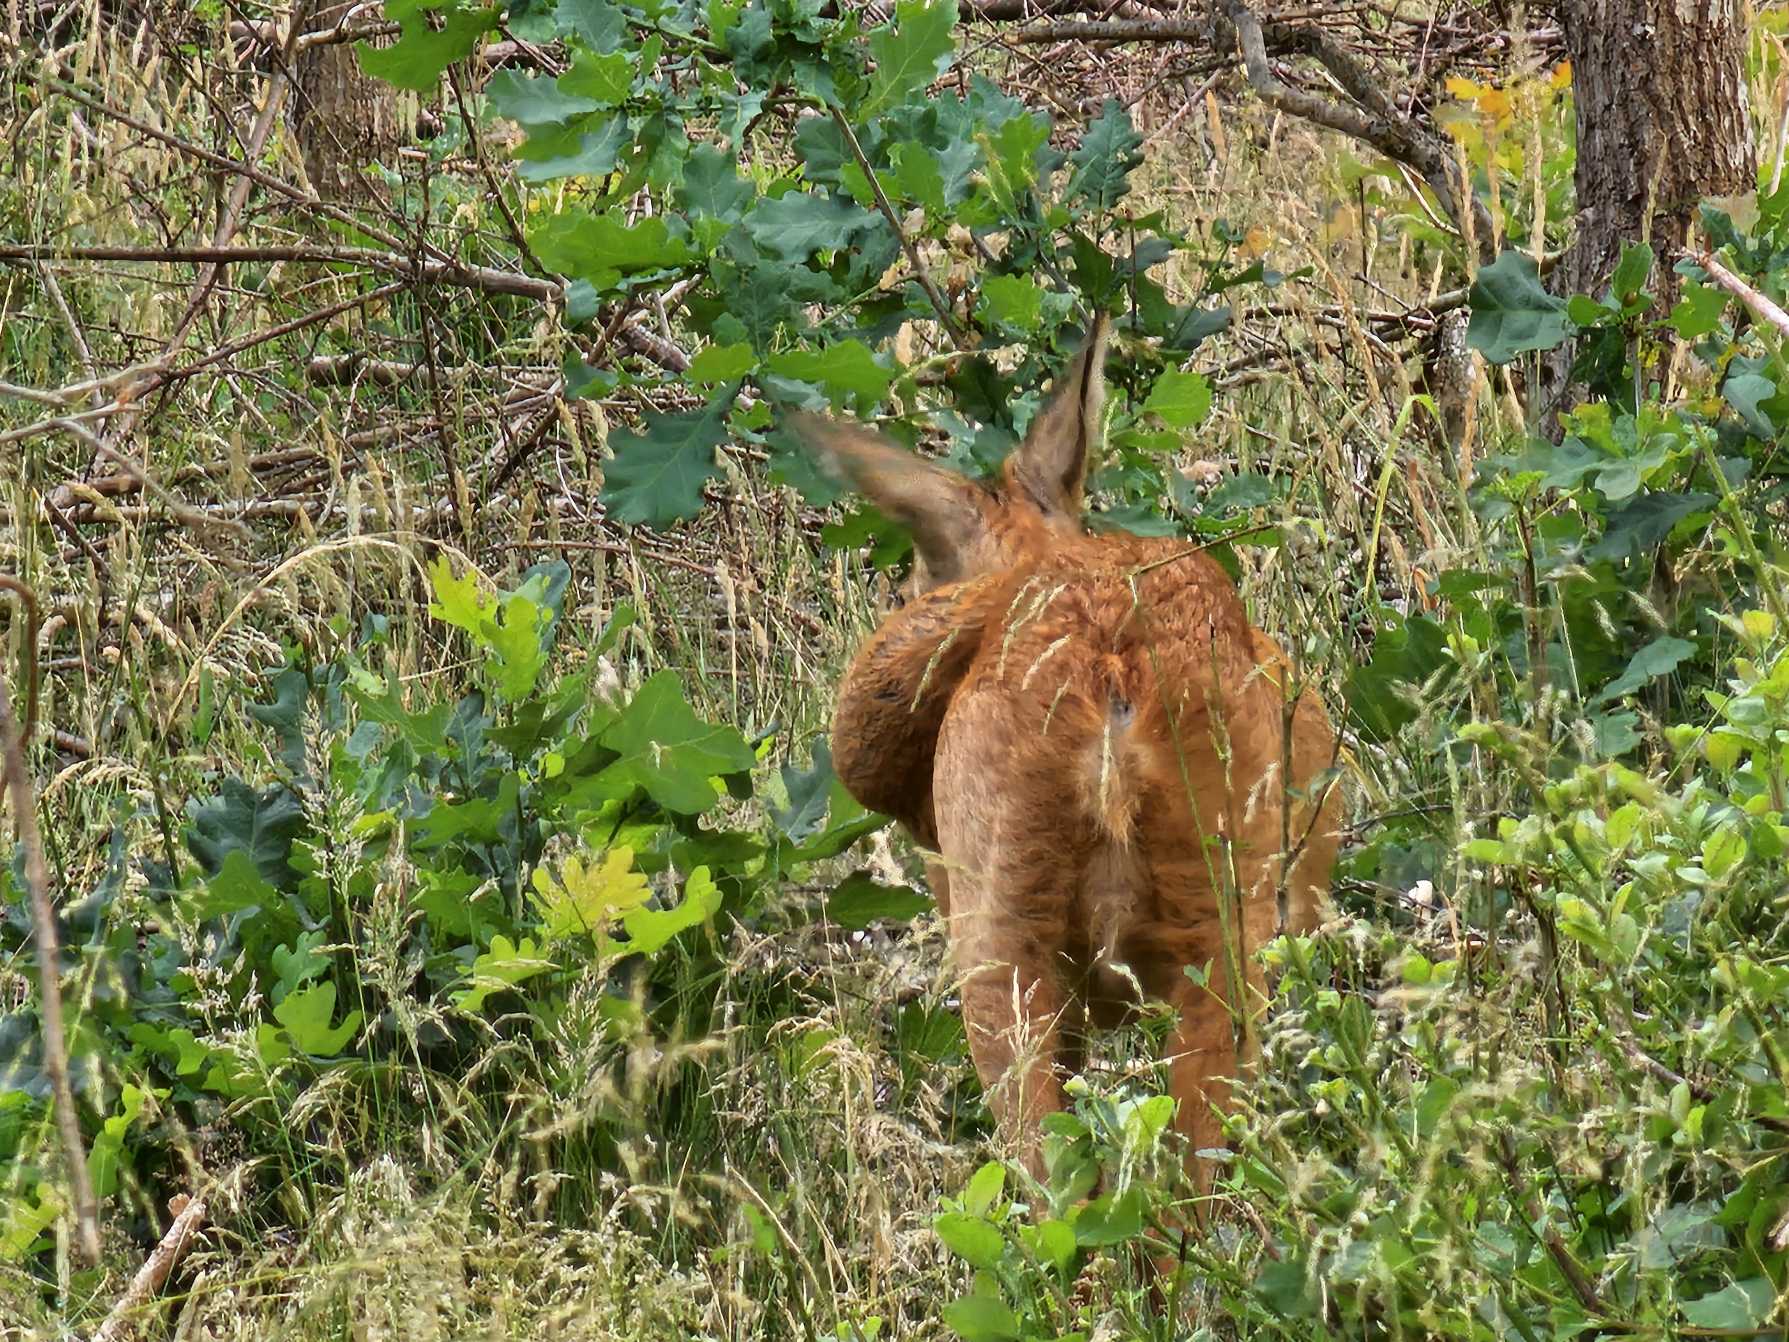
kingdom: Animalia
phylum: Chordata
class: Mammalia
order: Artiodactyla
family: Cervidae
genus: Capreolus
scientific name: Capreolus capreolus
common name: Rådyr
